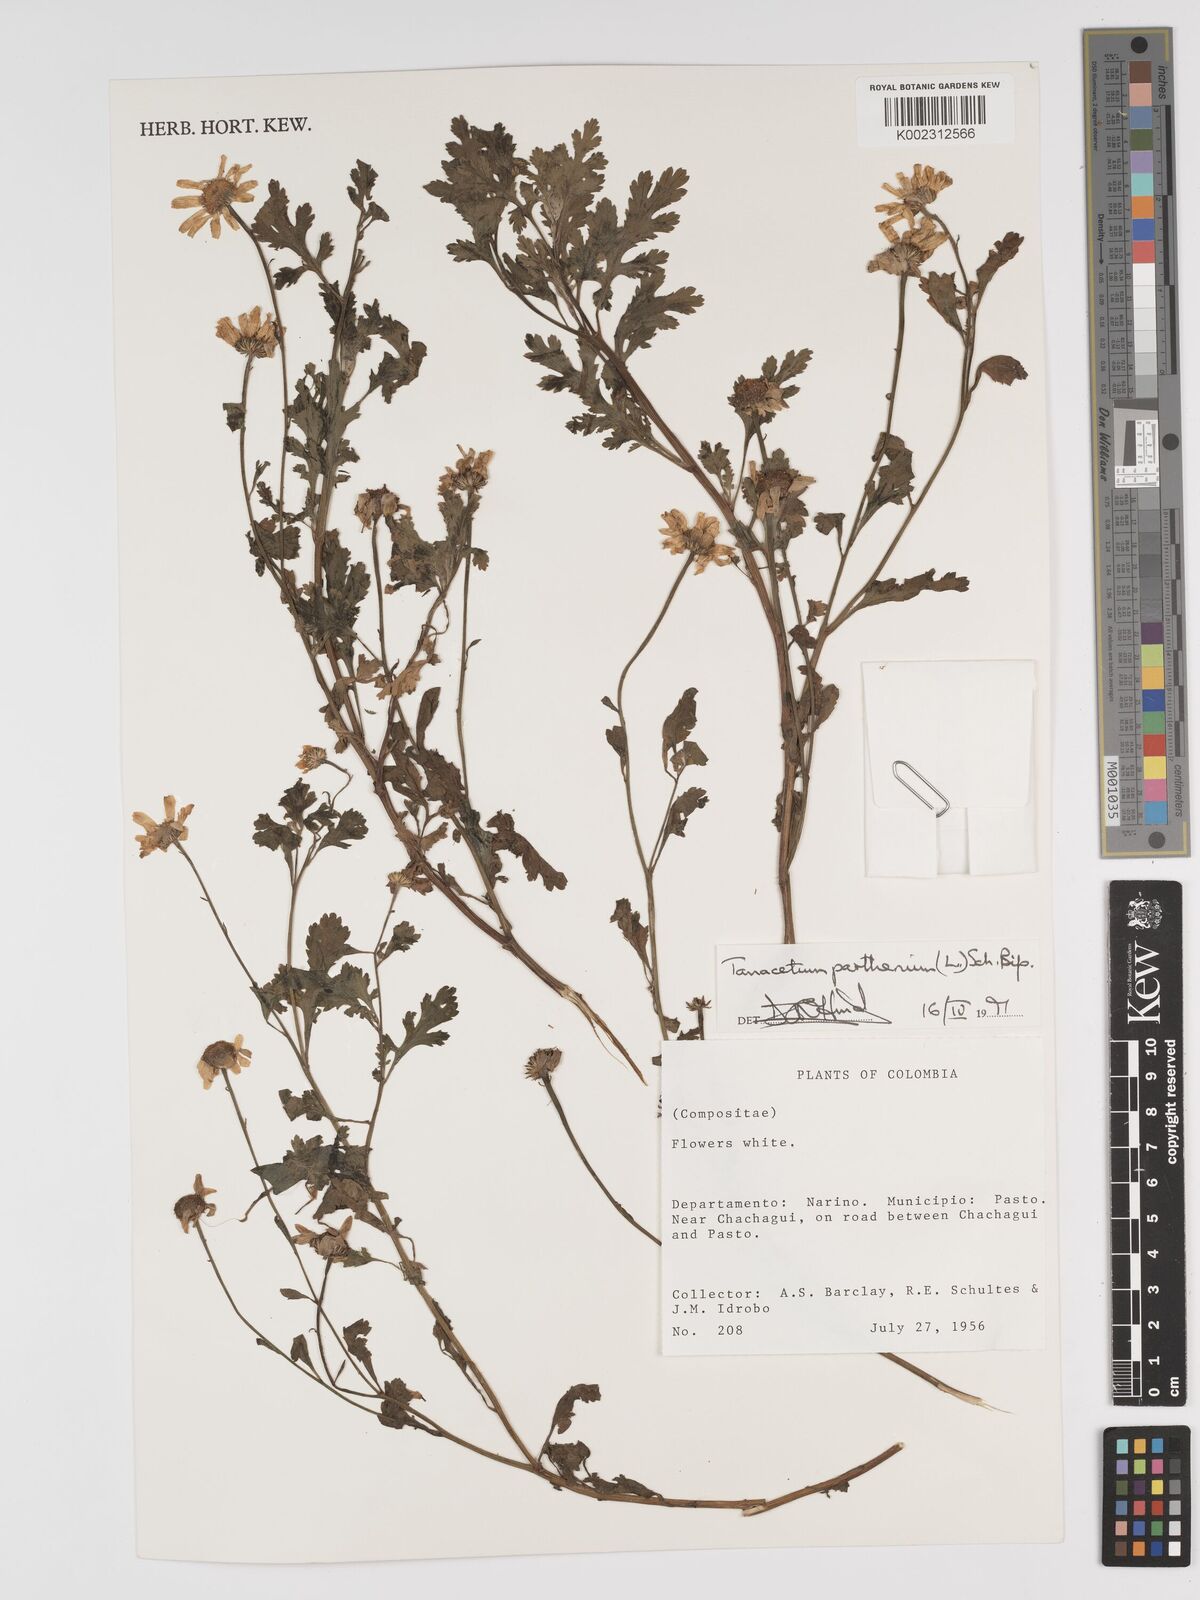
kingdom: Plantae
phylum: Tracheophyta
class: Magnoliopsida
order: Asterales
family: Asteraceae
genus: Tanacetum
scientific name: Tanacetum parthenium
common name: Feverfew
